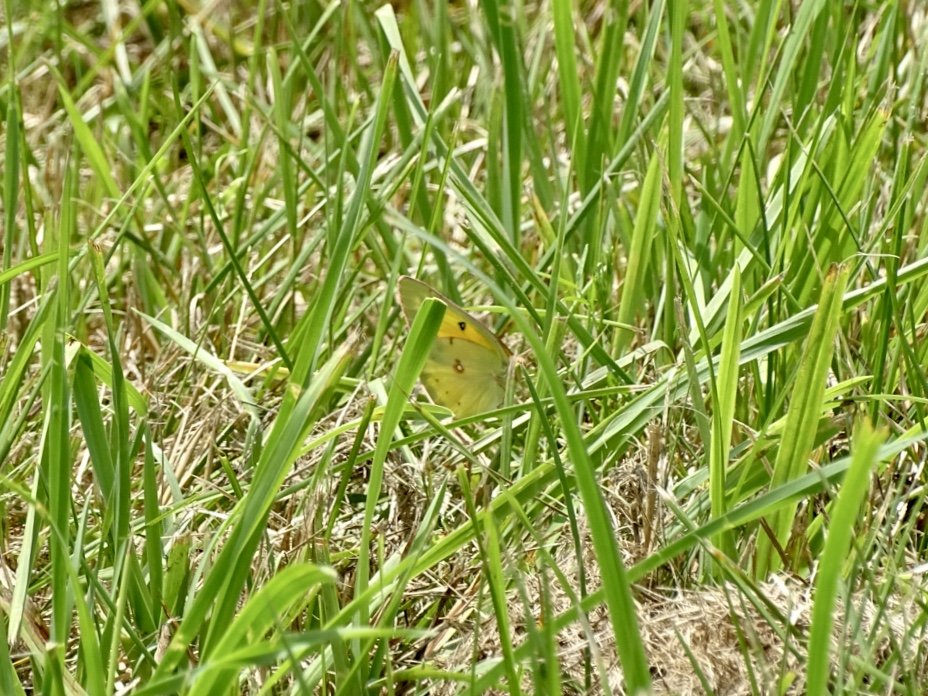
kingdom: Animalia
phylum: Arthropoda
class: Insecta
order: Lepidoptera
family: Pieridae
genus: Colias
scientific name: Colias eurytheme
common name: Orange Sulphur
